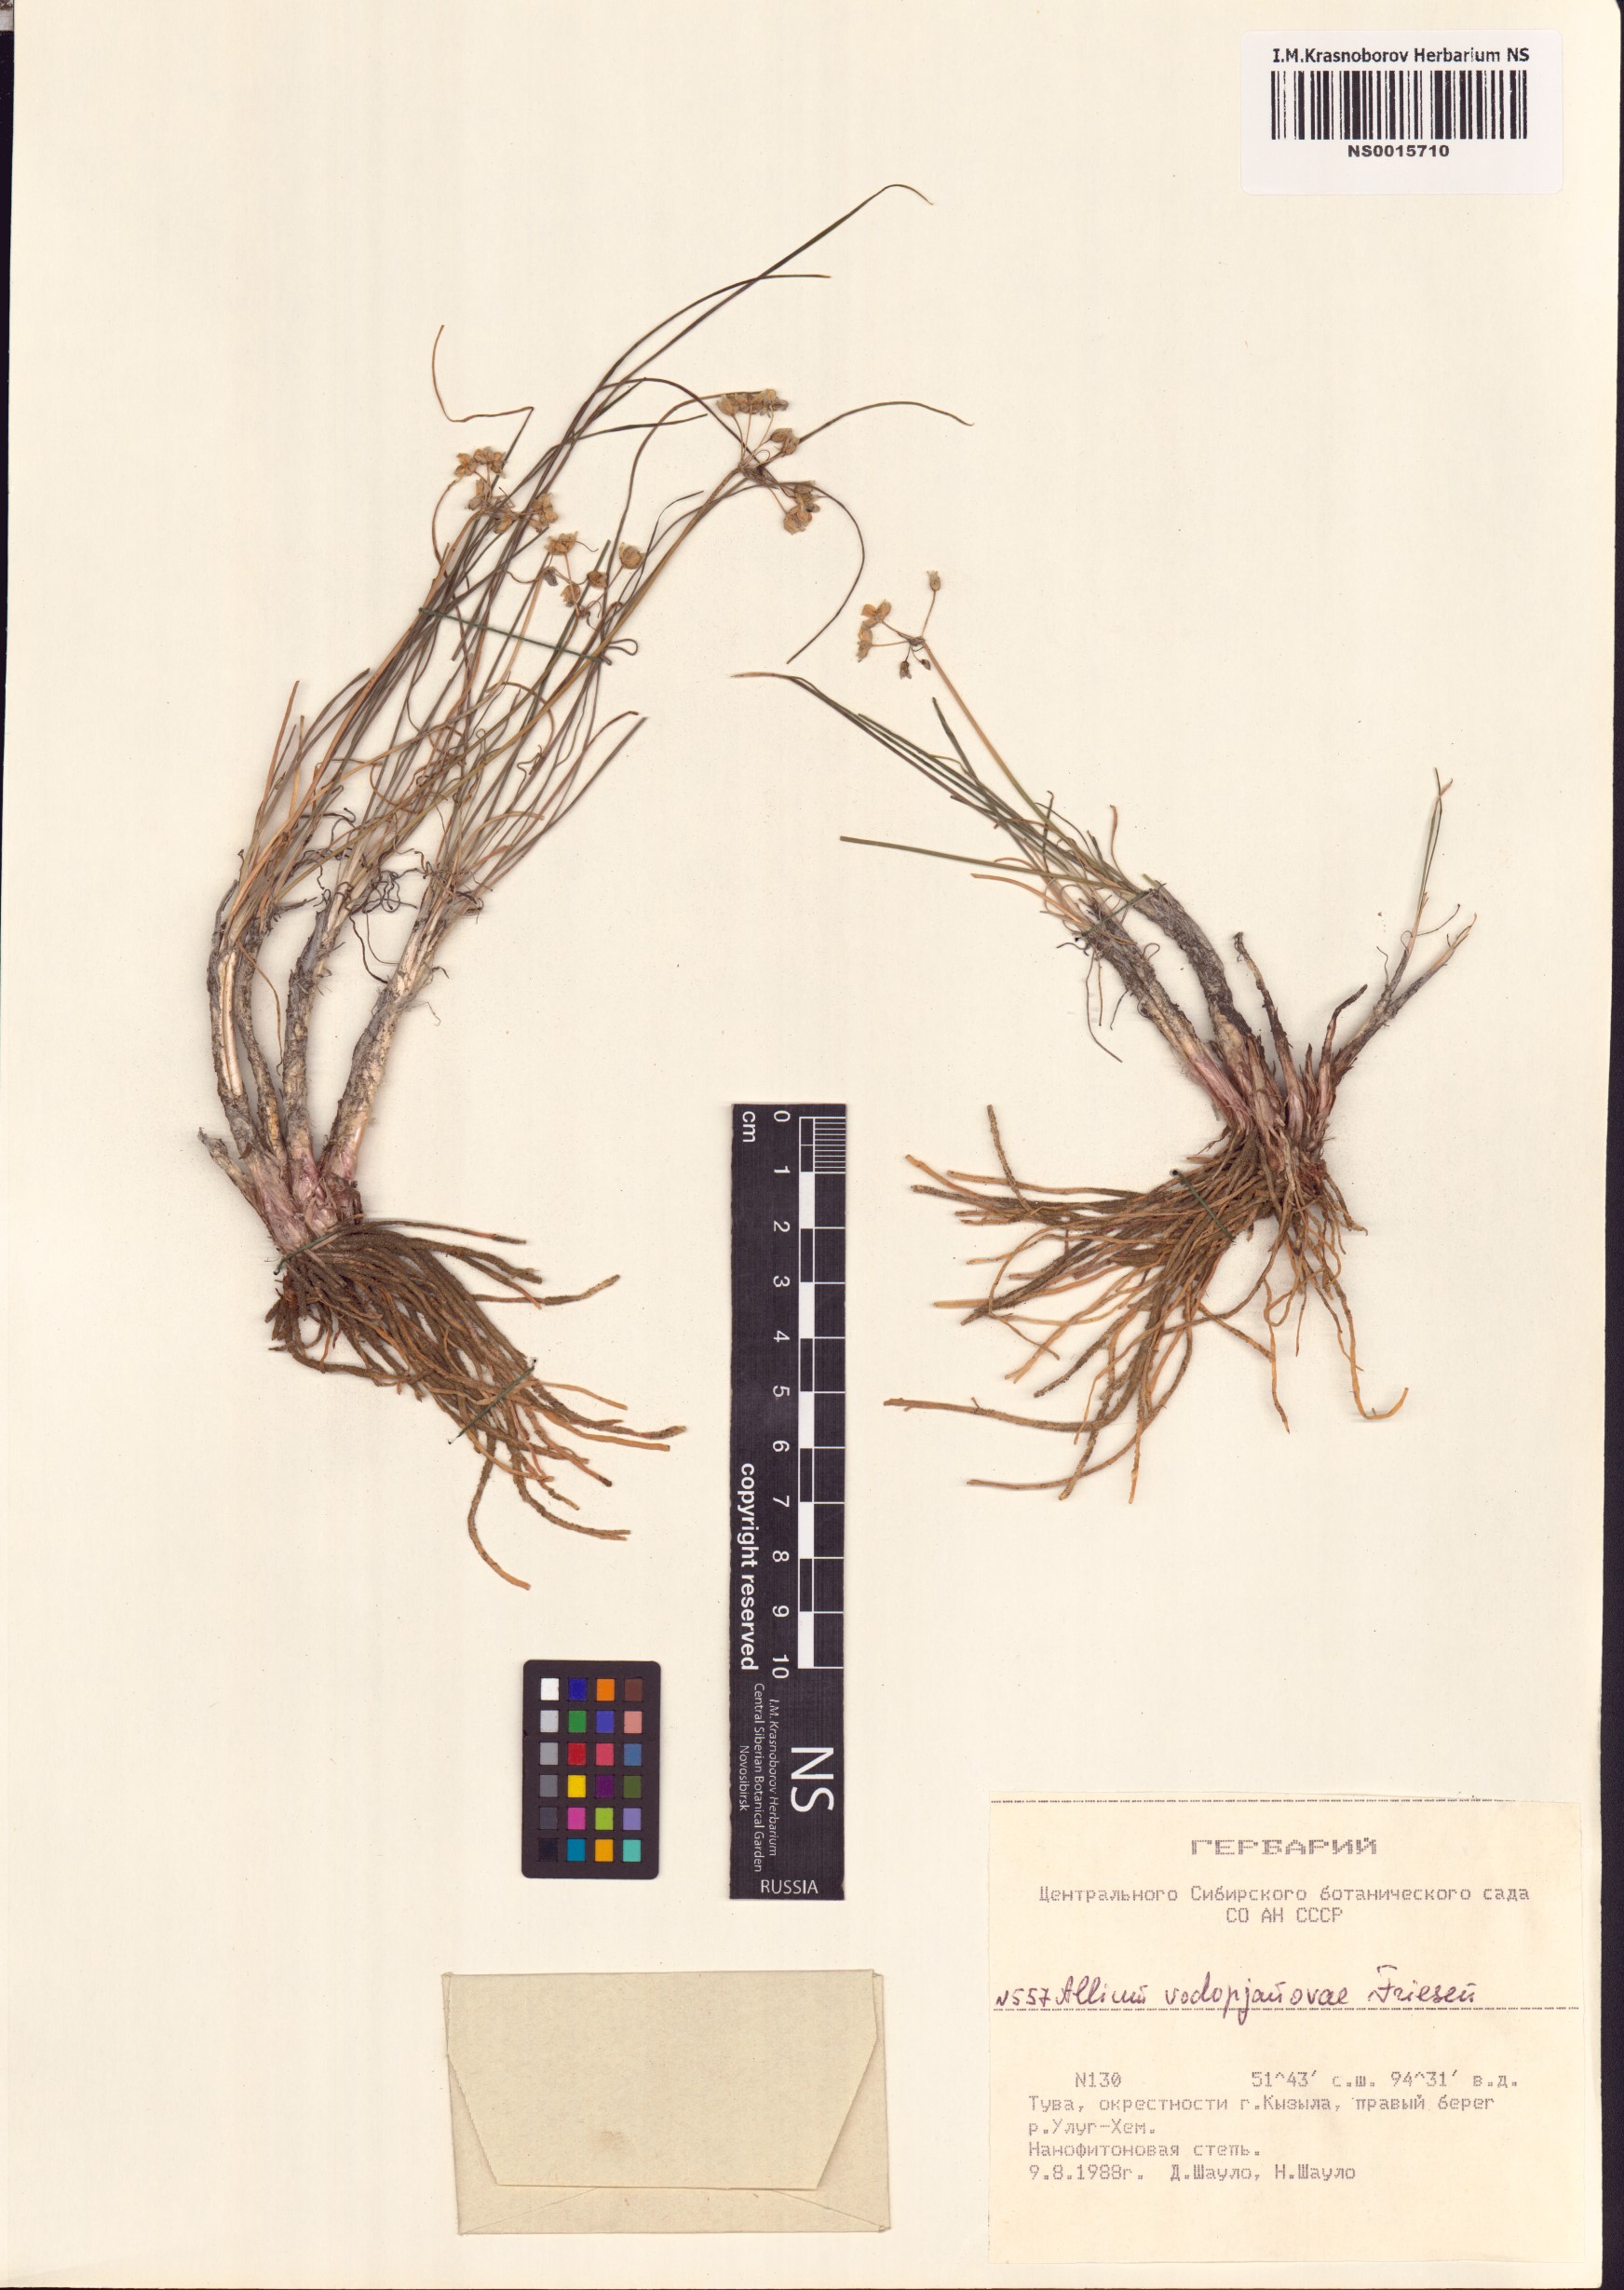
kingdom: Plantae
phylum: Tracheophyta
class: Liliopsida
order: Asparagales
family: Amaryllidaceae
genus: Allium
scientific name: Allium vodopjanovae
